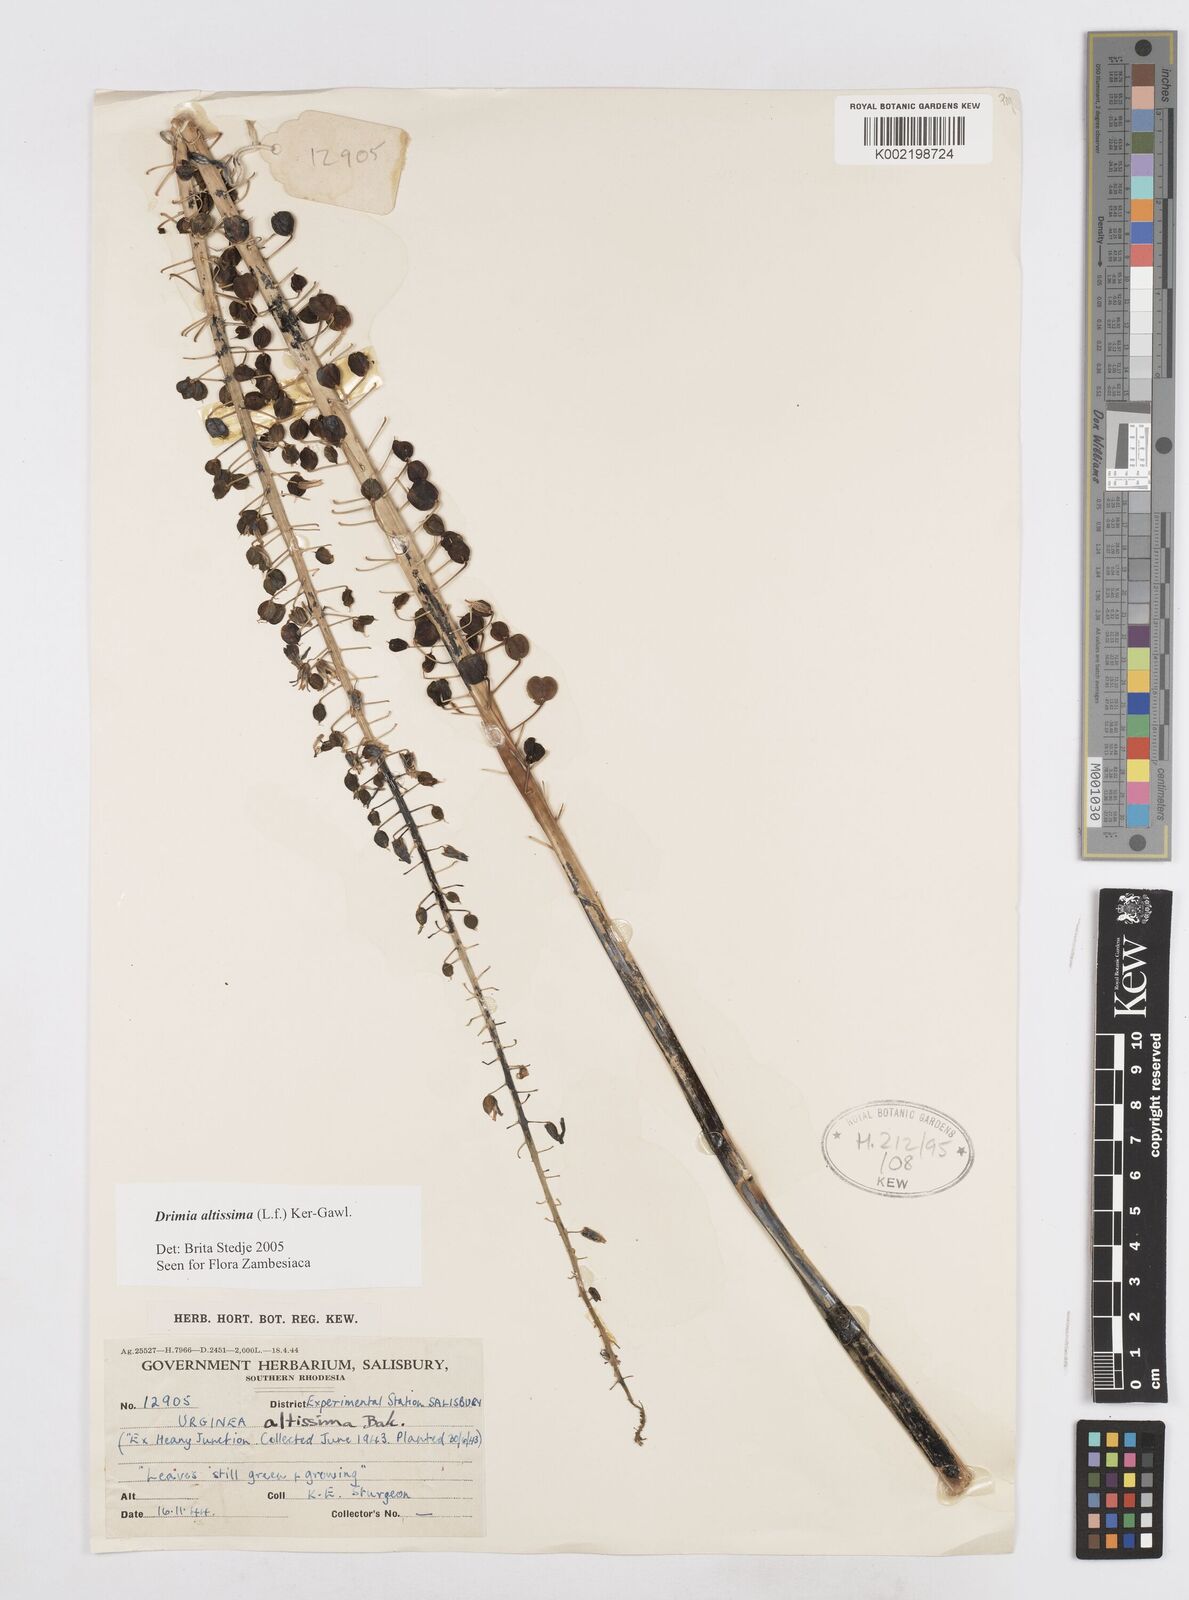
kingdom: Plantae
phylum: Tracheophyta
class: Liliopsida
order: Asparagales
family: Asparagaceae
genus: Drimia
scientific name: Drimia
